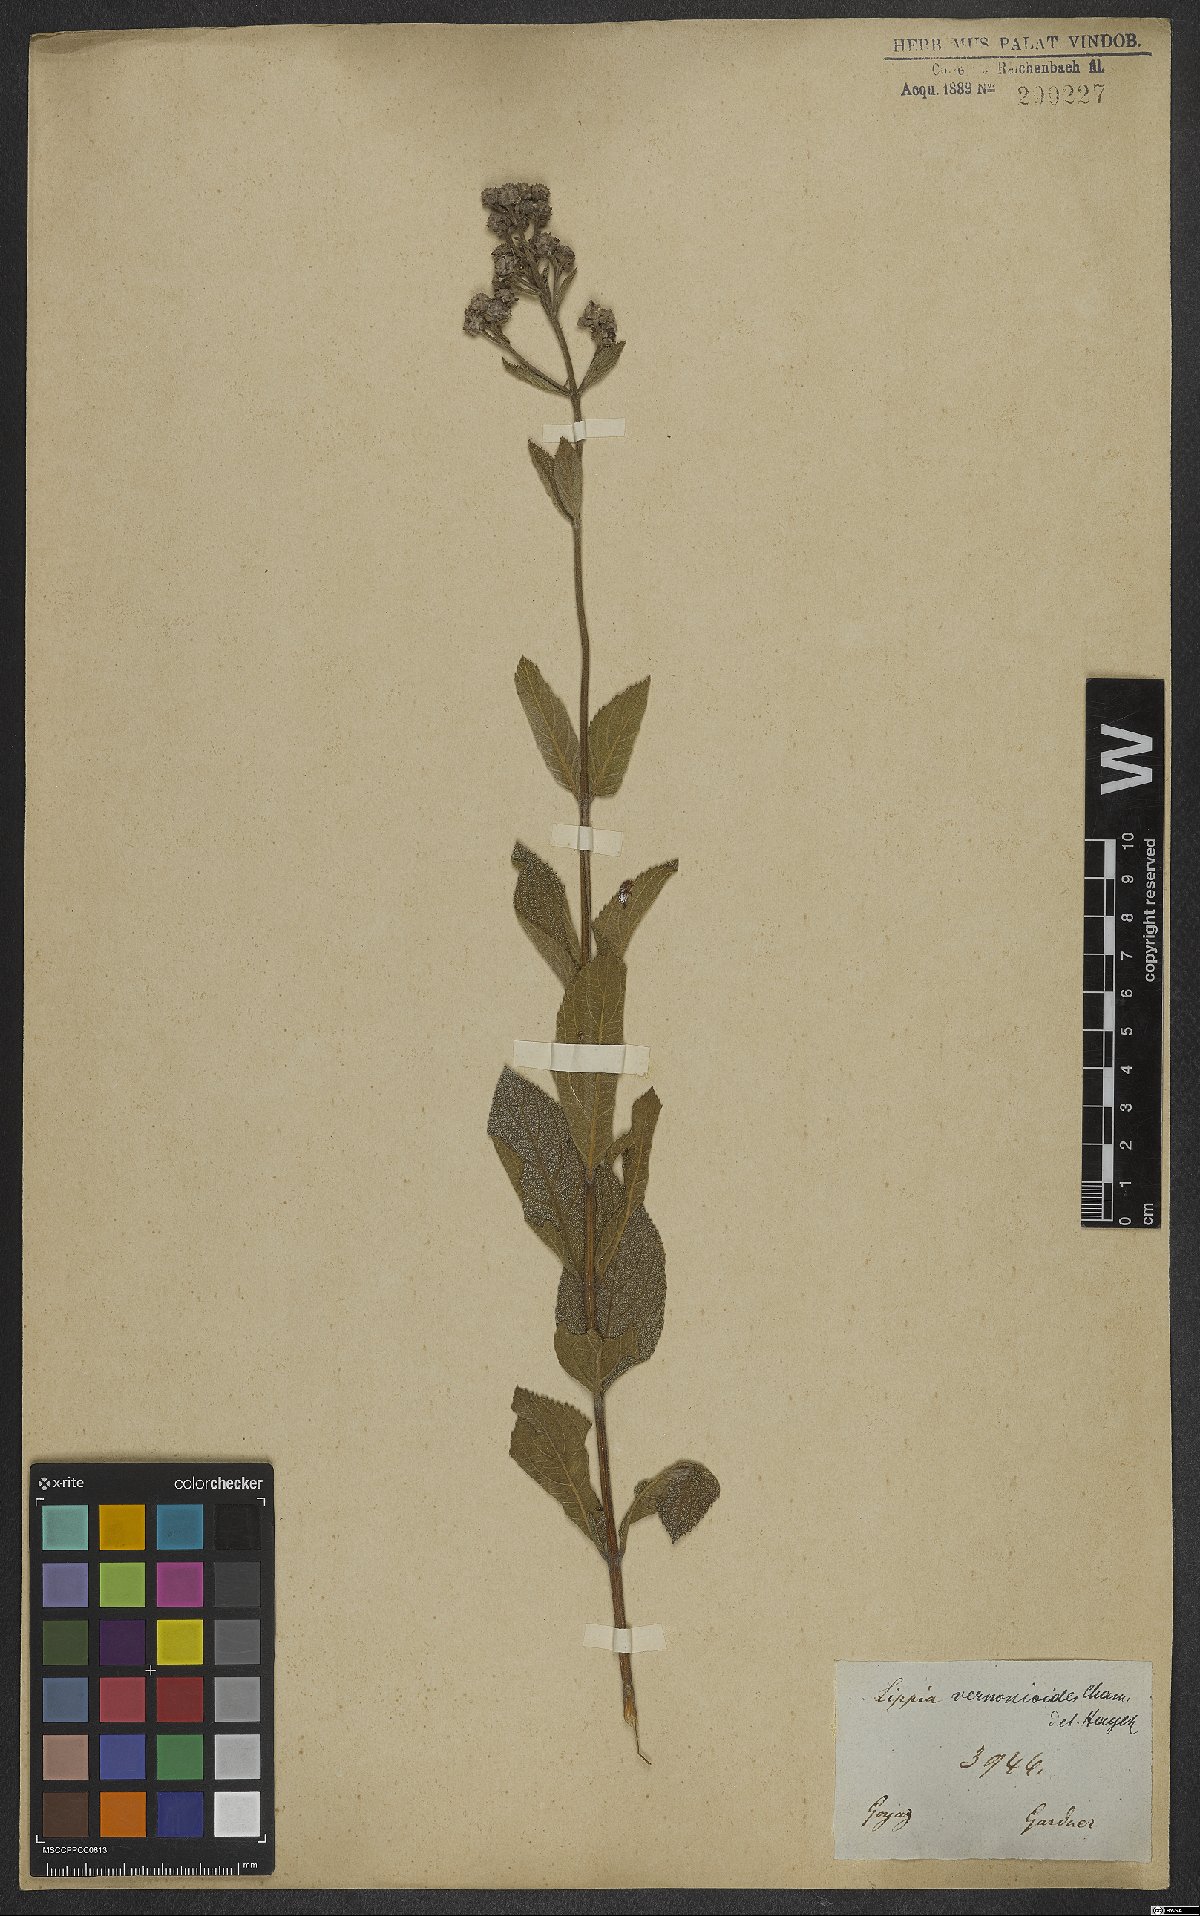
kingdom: Plantae
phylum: Tracheophyta
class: Magnoliopsida
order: Lamiales
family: Verbenaceae
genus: Lippia
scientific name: Lippia vernonioides
